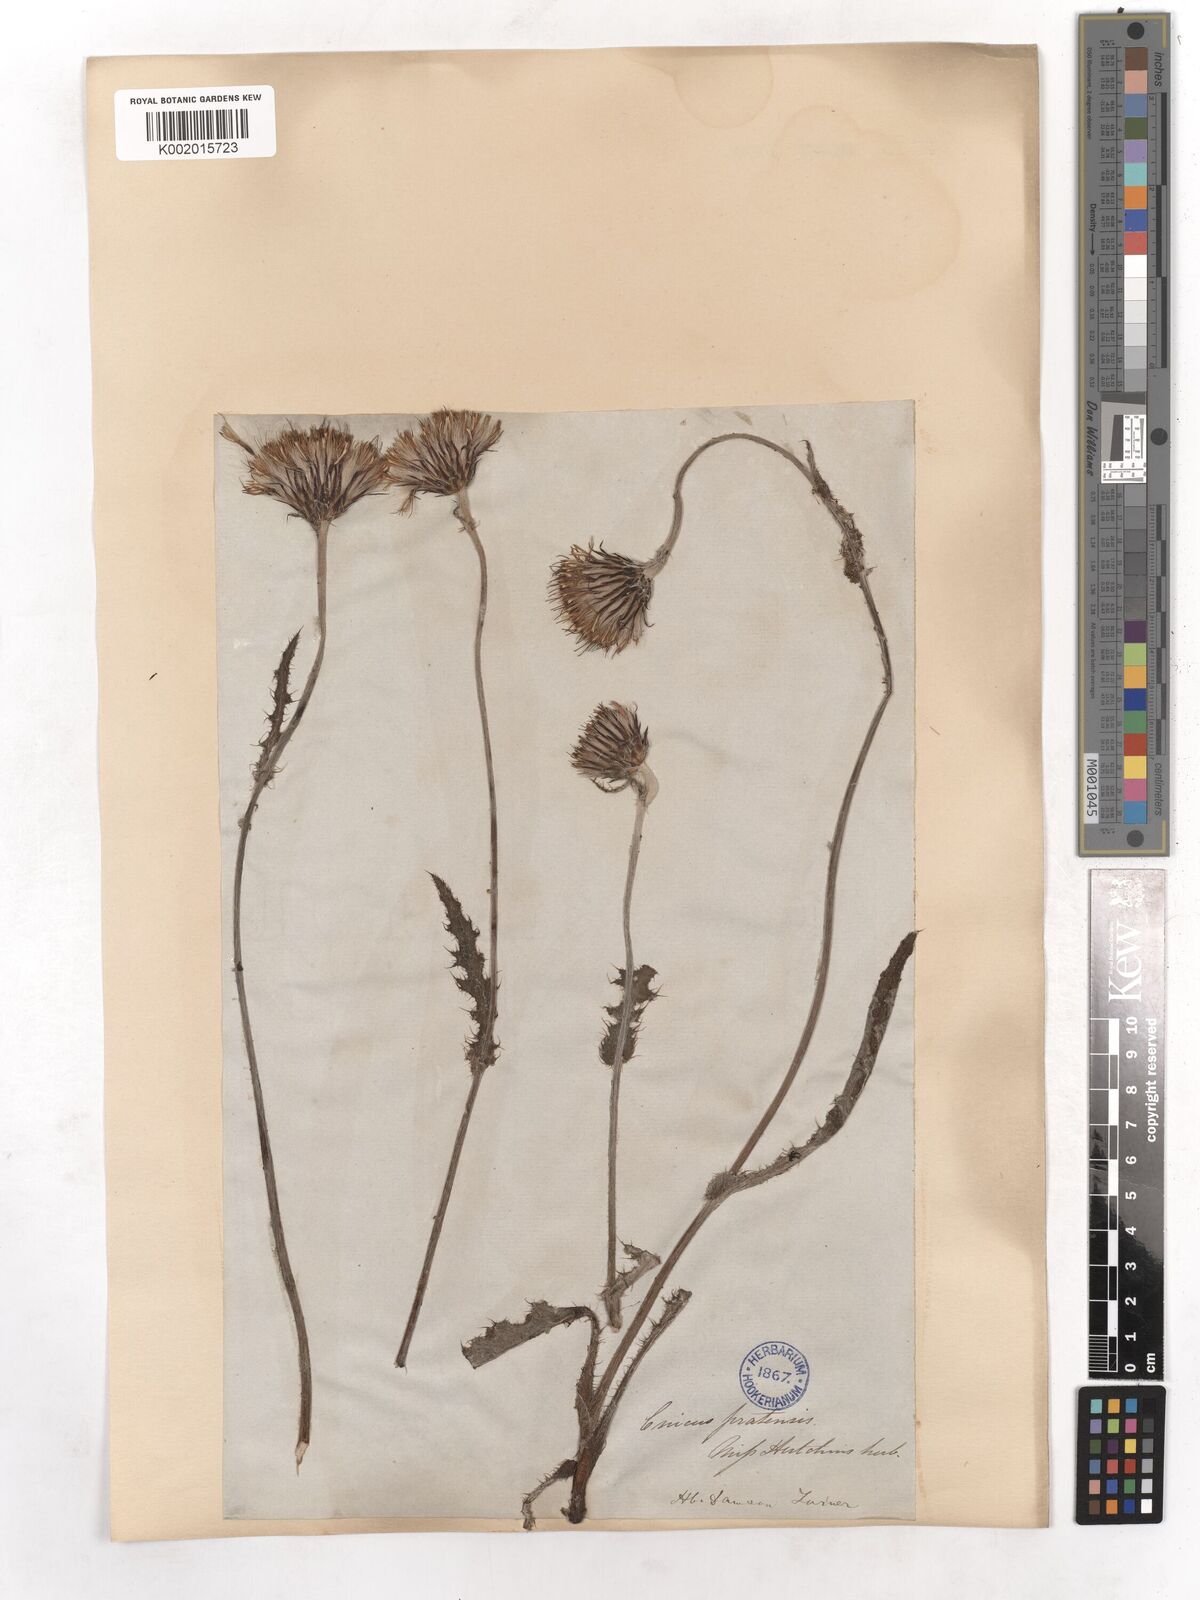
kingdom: Plantae
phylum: Tracheophyta
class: Magnoliopsida
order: Asterales
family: Asteraceae
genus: Cirsium
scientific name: Cirsium dissectum
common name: Meadow thistle
